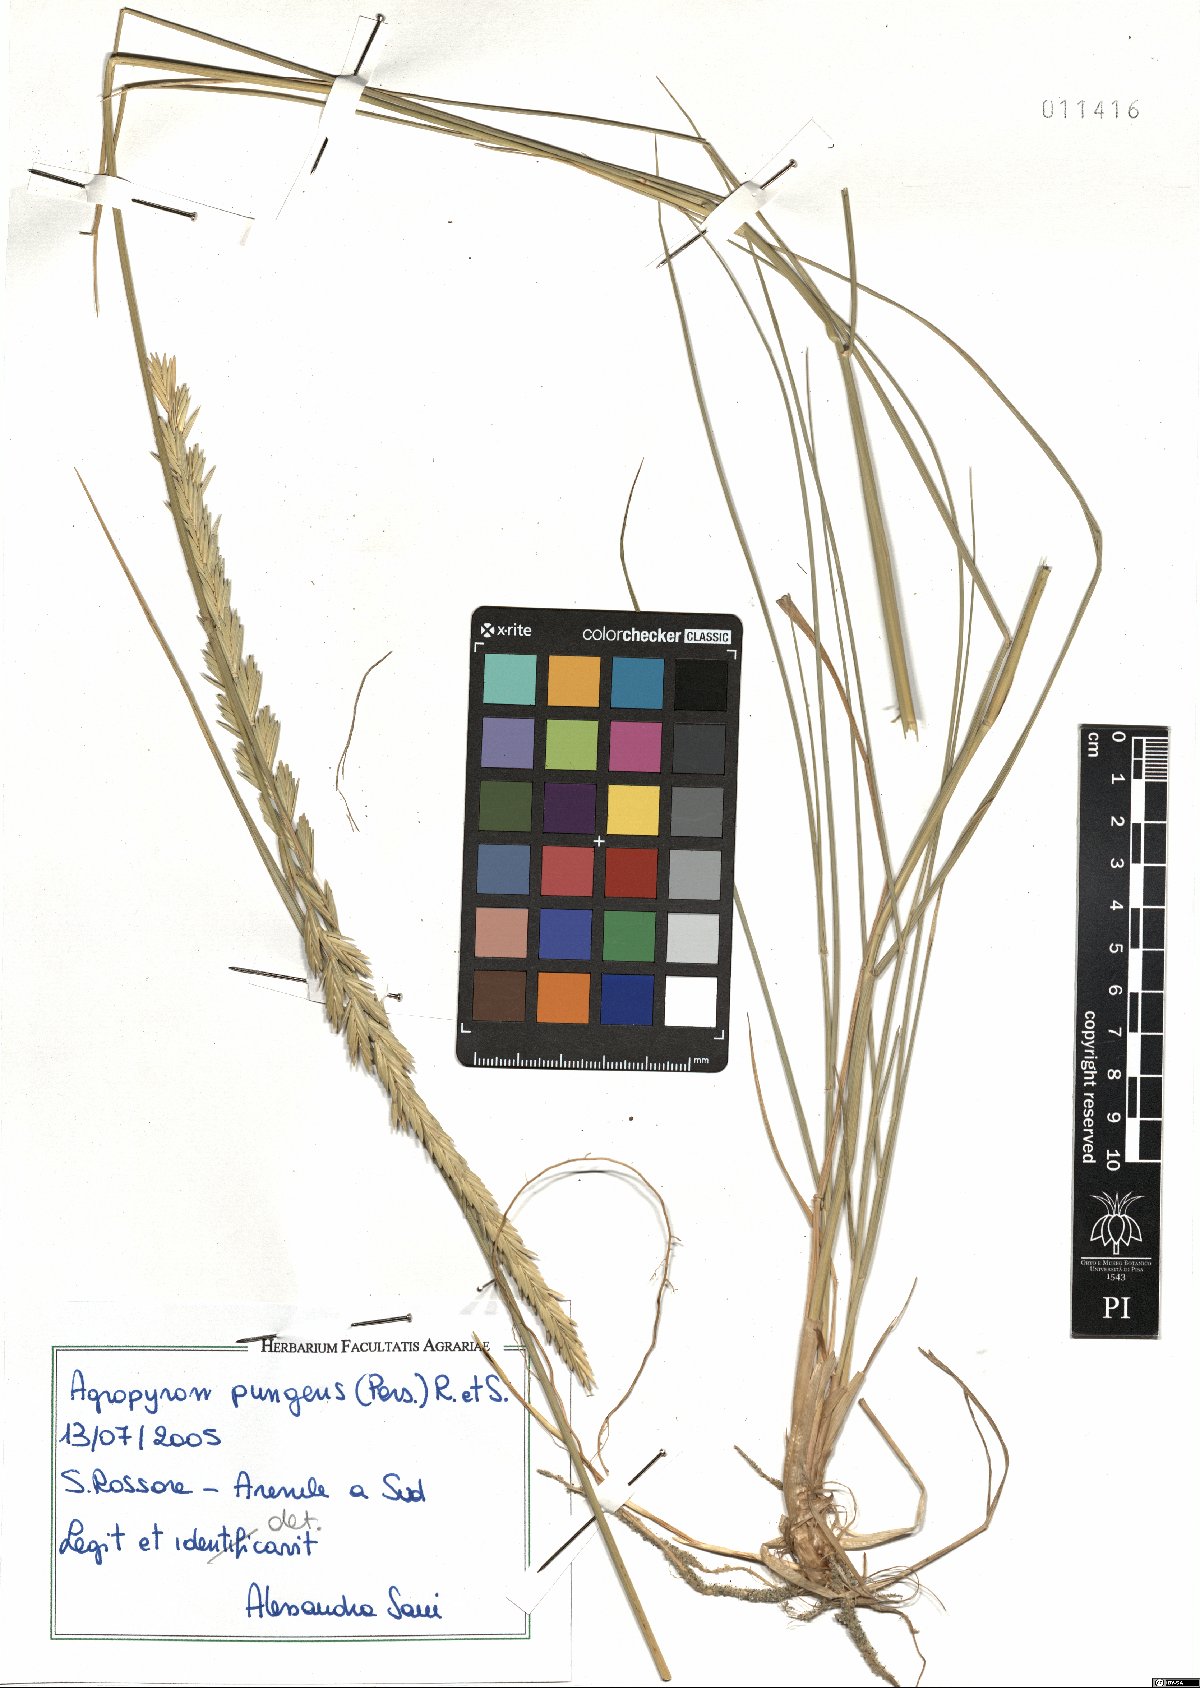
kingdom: Plantae
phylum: Tracheophyta
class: Liliopsida
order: Poales
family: Poaceae
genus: Elymus
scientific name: Elymus pungens
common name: Sea couch
